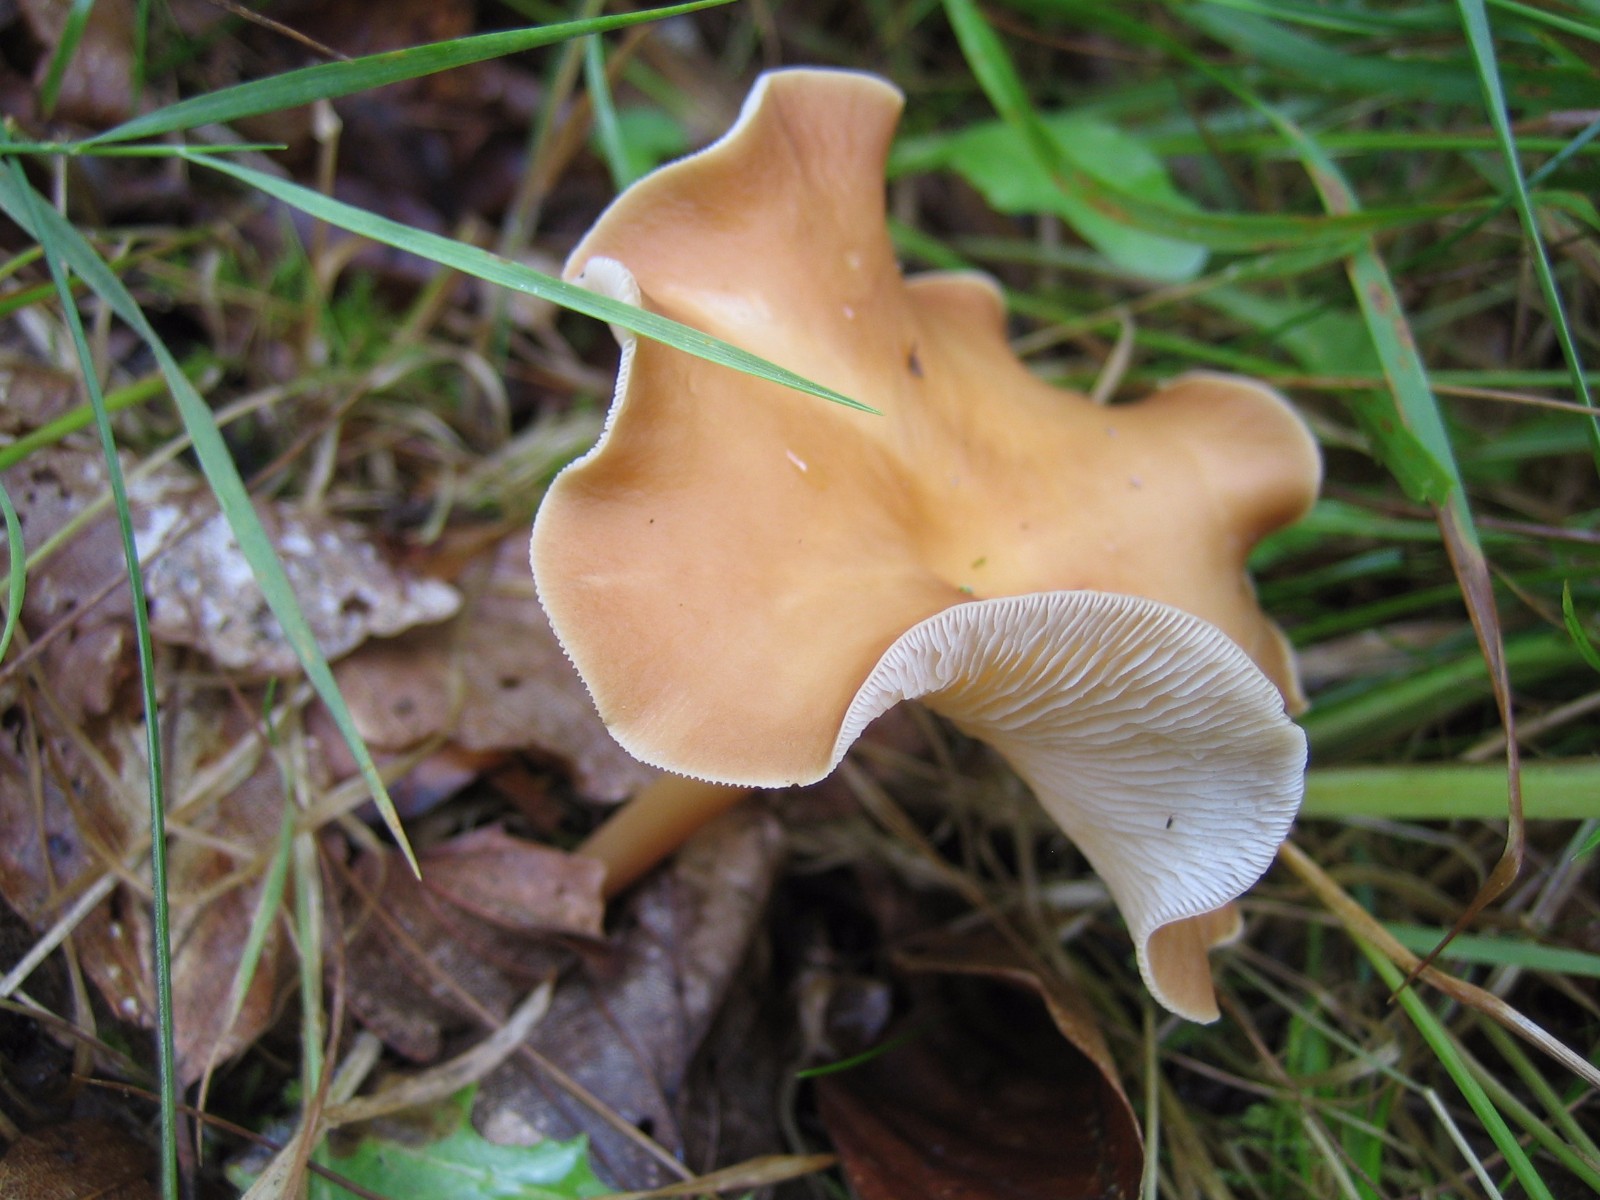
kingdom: Fungi
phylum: Basidiomycota
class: Agaricomycetes
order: Agaricales
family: Omphalotaceae
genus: Gymnopus
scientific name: Gymnopus dryophilus
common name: løv-fladhat
